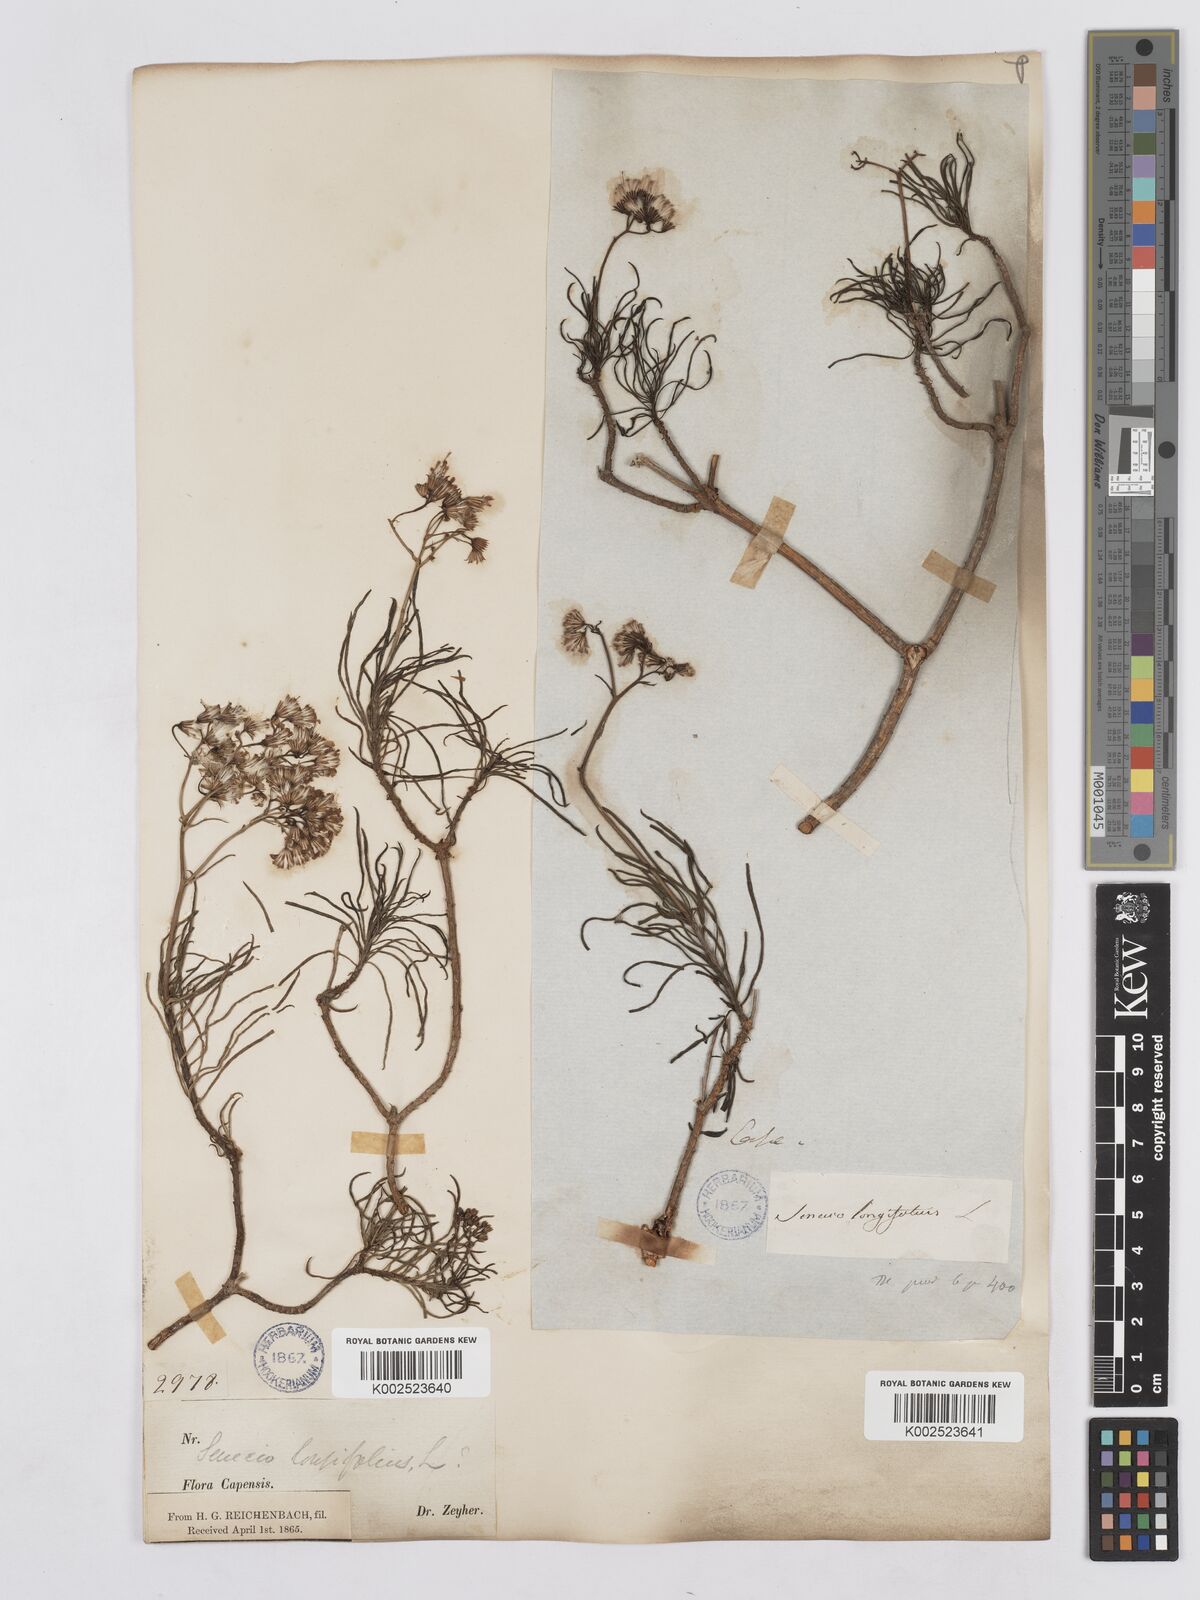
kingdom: Plantae
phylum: Tracheophyta
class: Magnoliopsida
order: Asterales
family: Asteraceae
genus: Senecio
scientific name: Senecio linifolius
